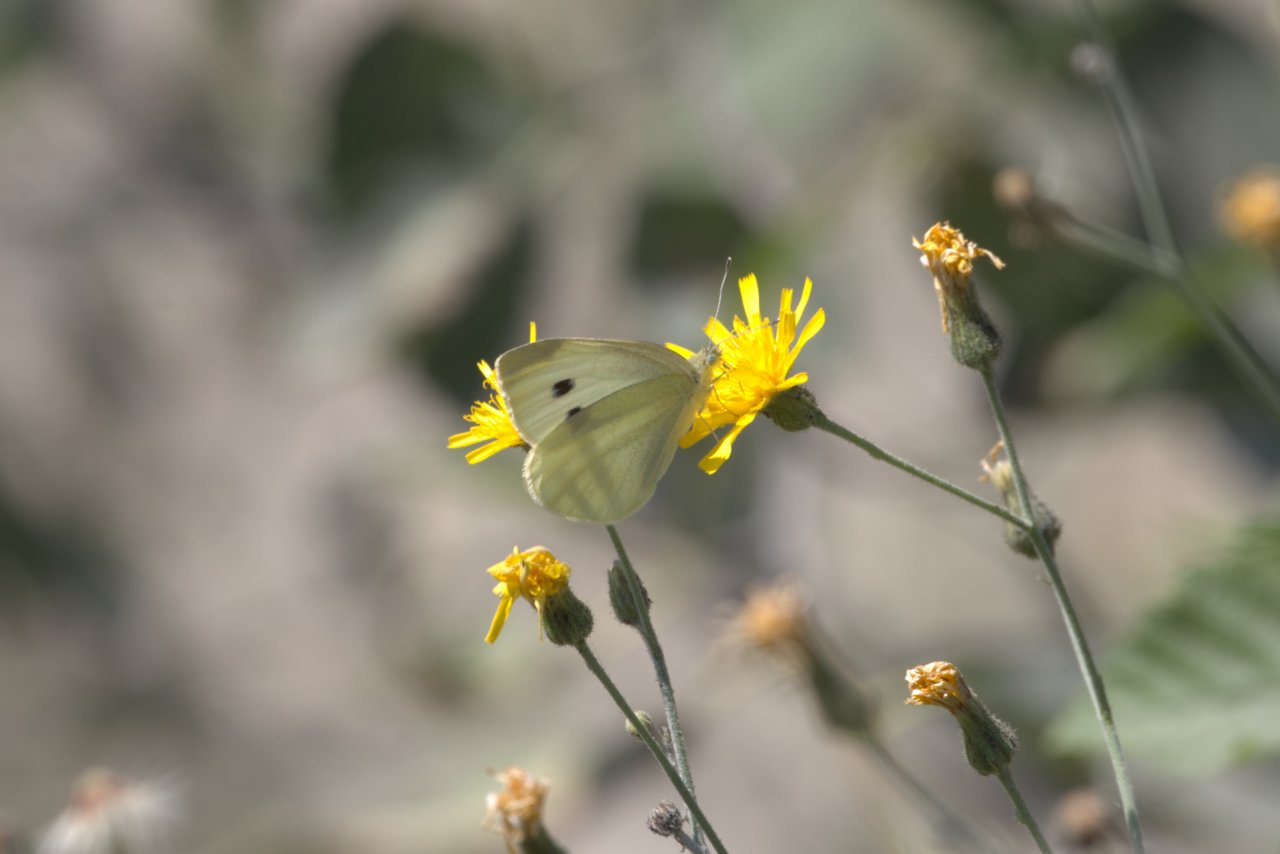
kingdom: Animalia
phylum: Arthropoda
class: Insecta
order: Lepidoptera
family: Pieridae
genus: Pieris
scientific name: Pieris rapae
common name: Cabbage White
